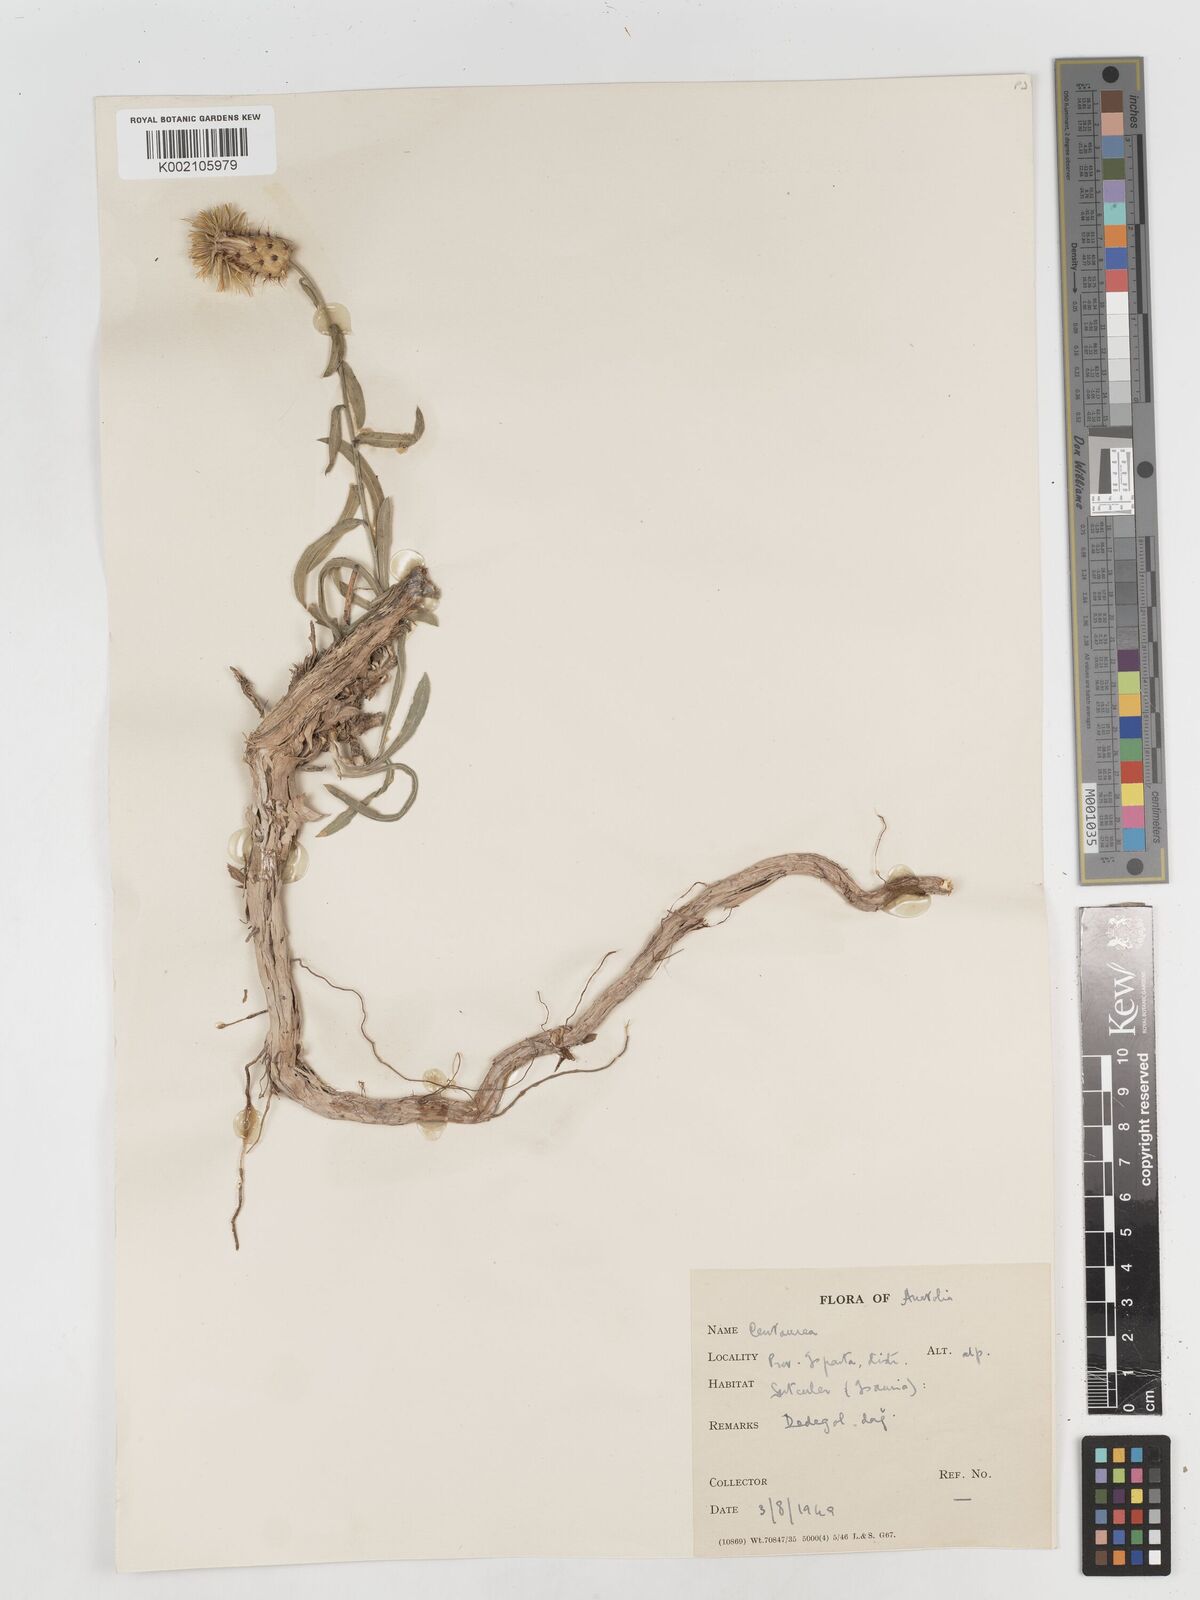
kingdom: Plantae
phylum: Tracheophyta
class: Magnoliopsida
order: Asterales
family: Asteraceae
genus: Centaurea
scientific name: Centaurea
